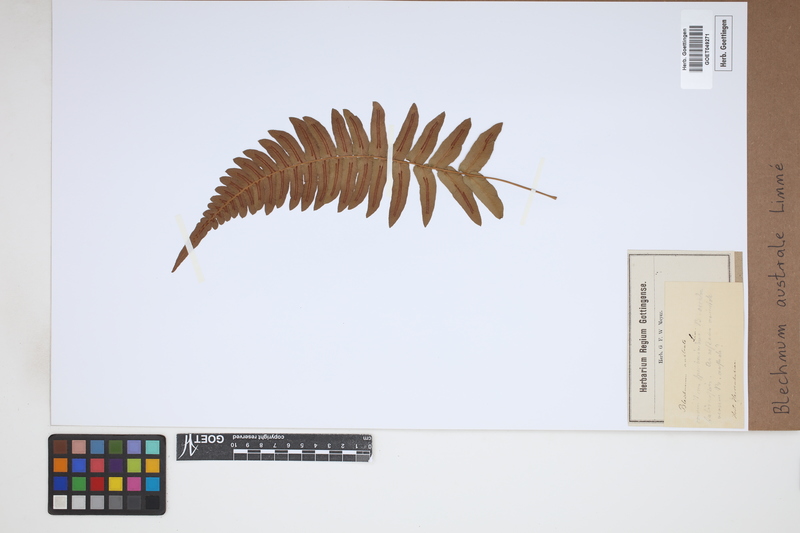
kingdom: Plantae
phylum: Tracheophyta
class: Polypodiopsida
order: Polypodiales
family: Blechnaceae
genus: Blechnum
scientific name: Blechnum australe
